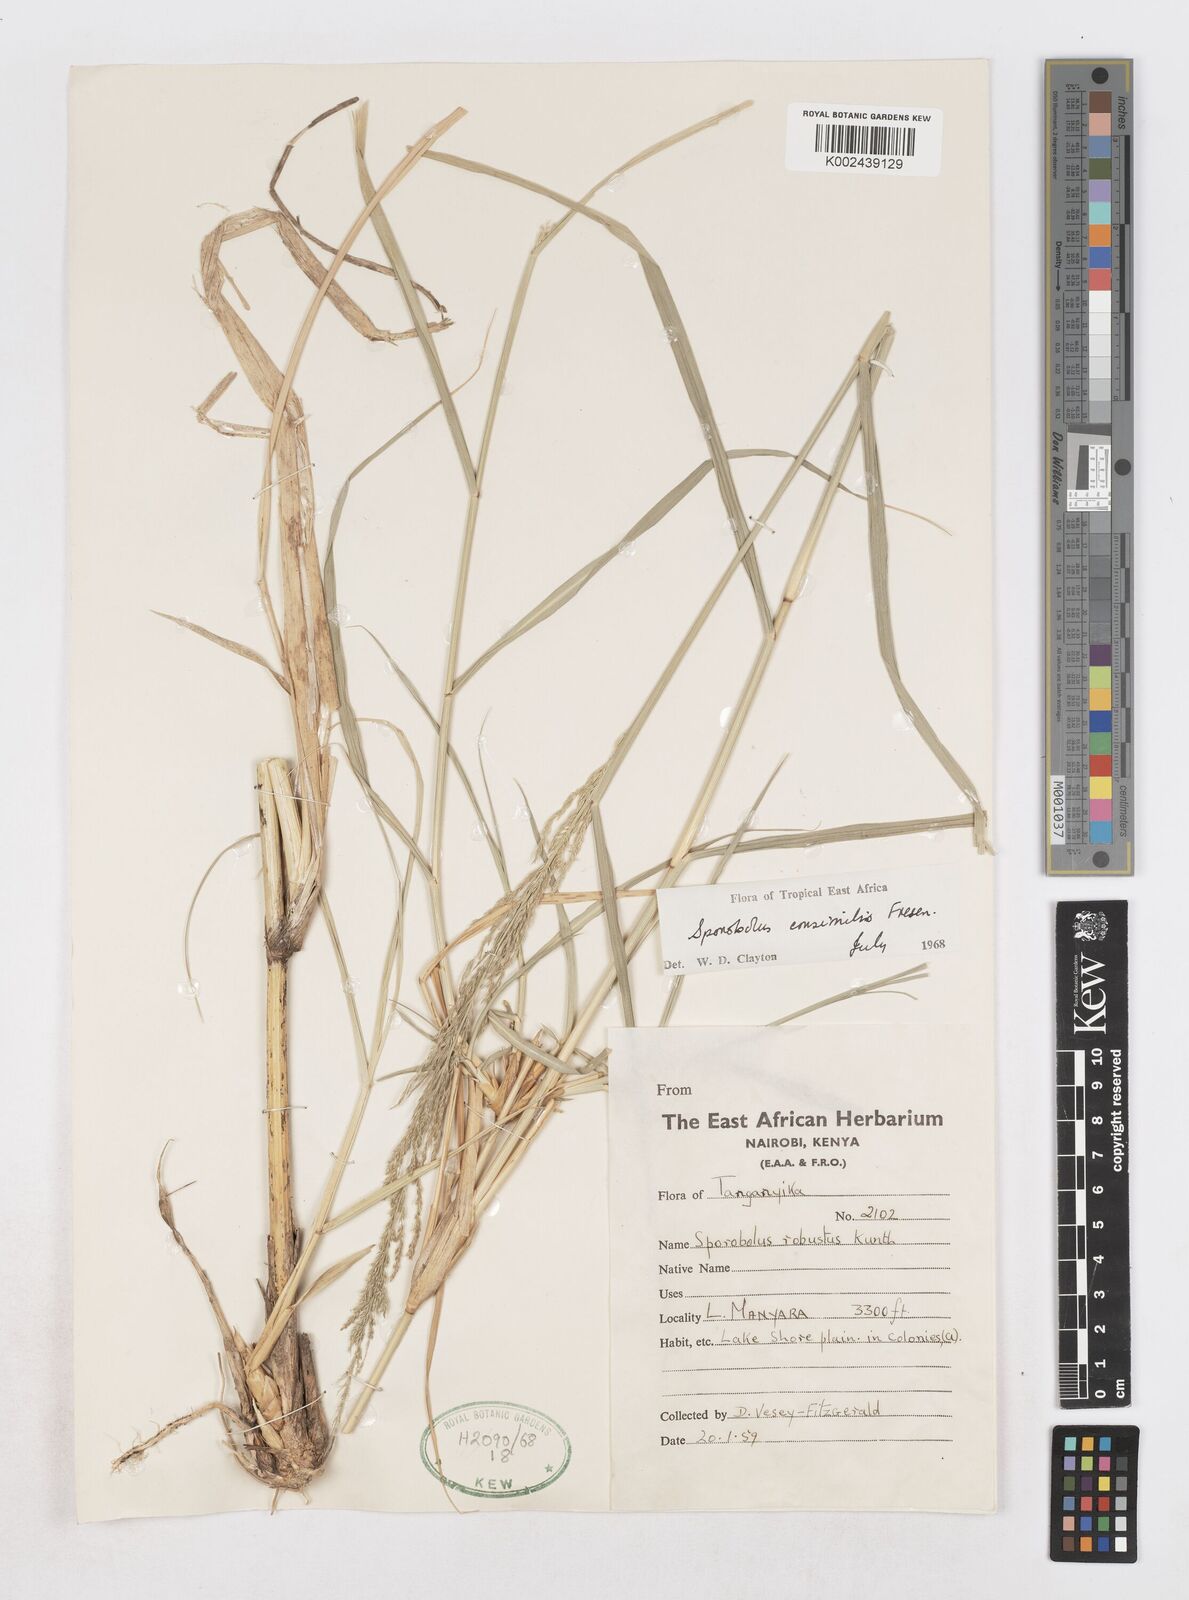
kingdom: Plantae
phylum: Tracheophyta
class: Liliopsida
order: Poales
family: Poaceae
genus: Sporobolus
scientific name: Sporobolus consimilis
